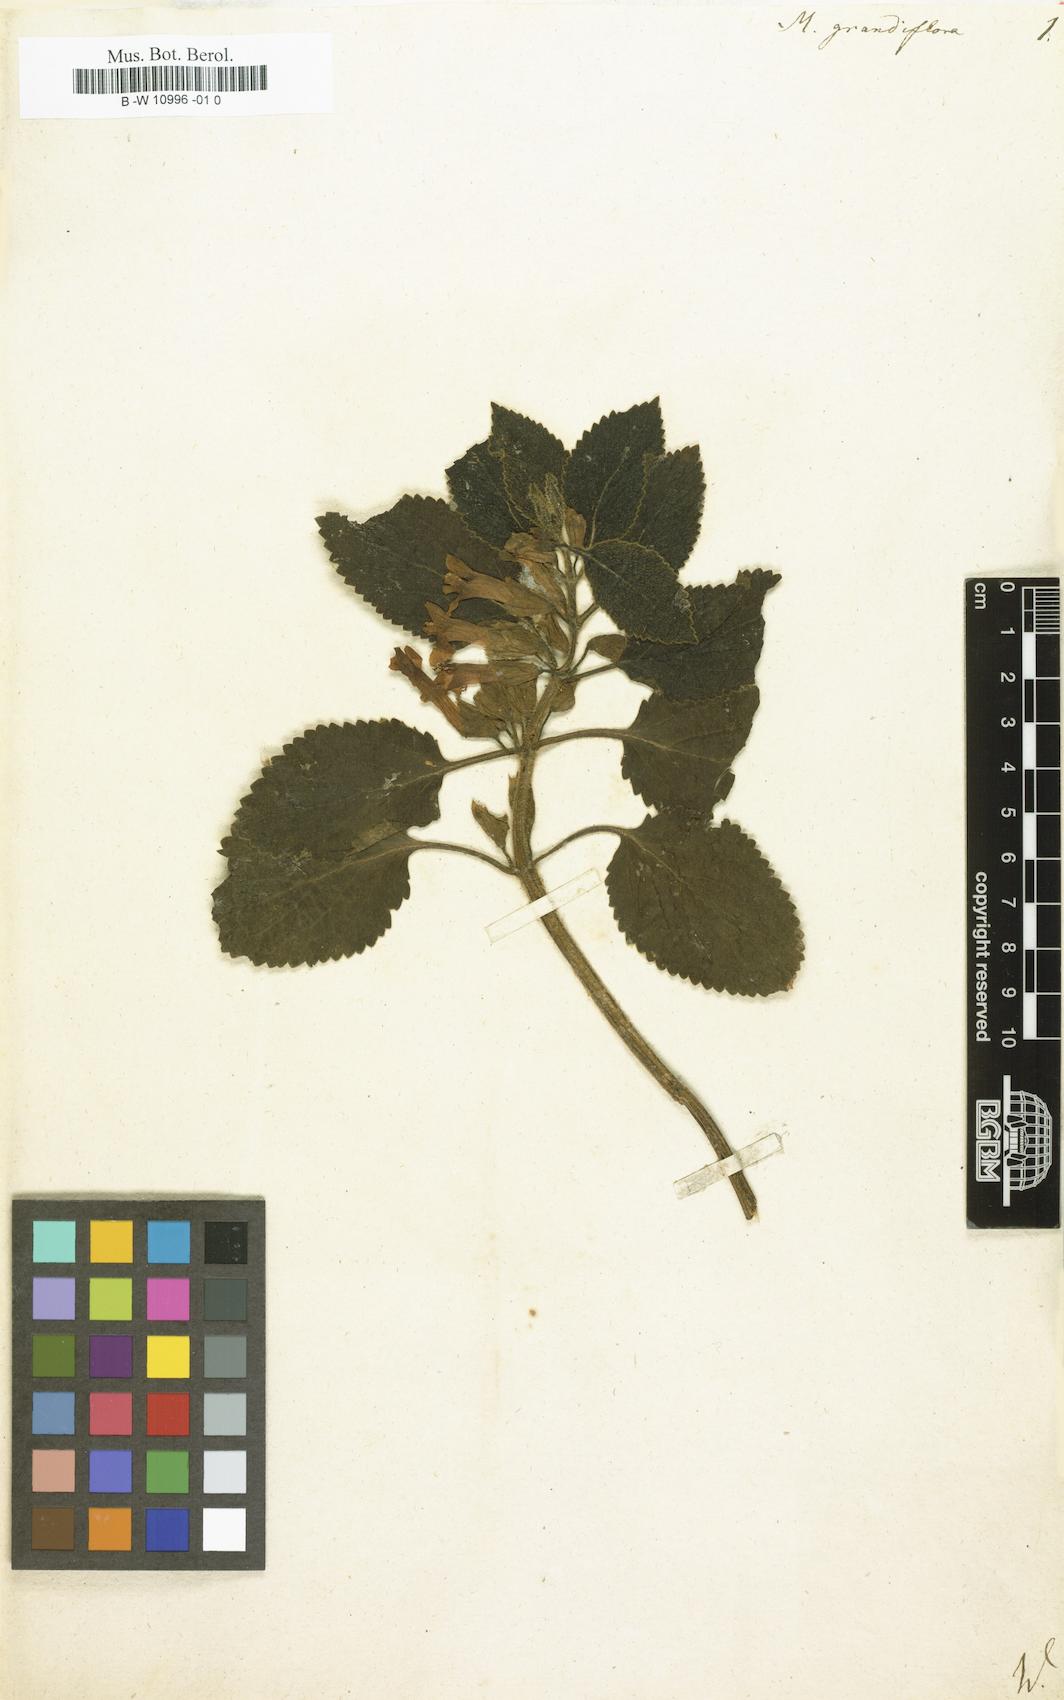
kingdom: Plantae
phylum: Tracheophyta
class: Magnoliopsida
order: Lamiales
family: Lamiaceae
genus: Melittis
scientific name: Melittis melissophyllum
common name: Bastard balm
